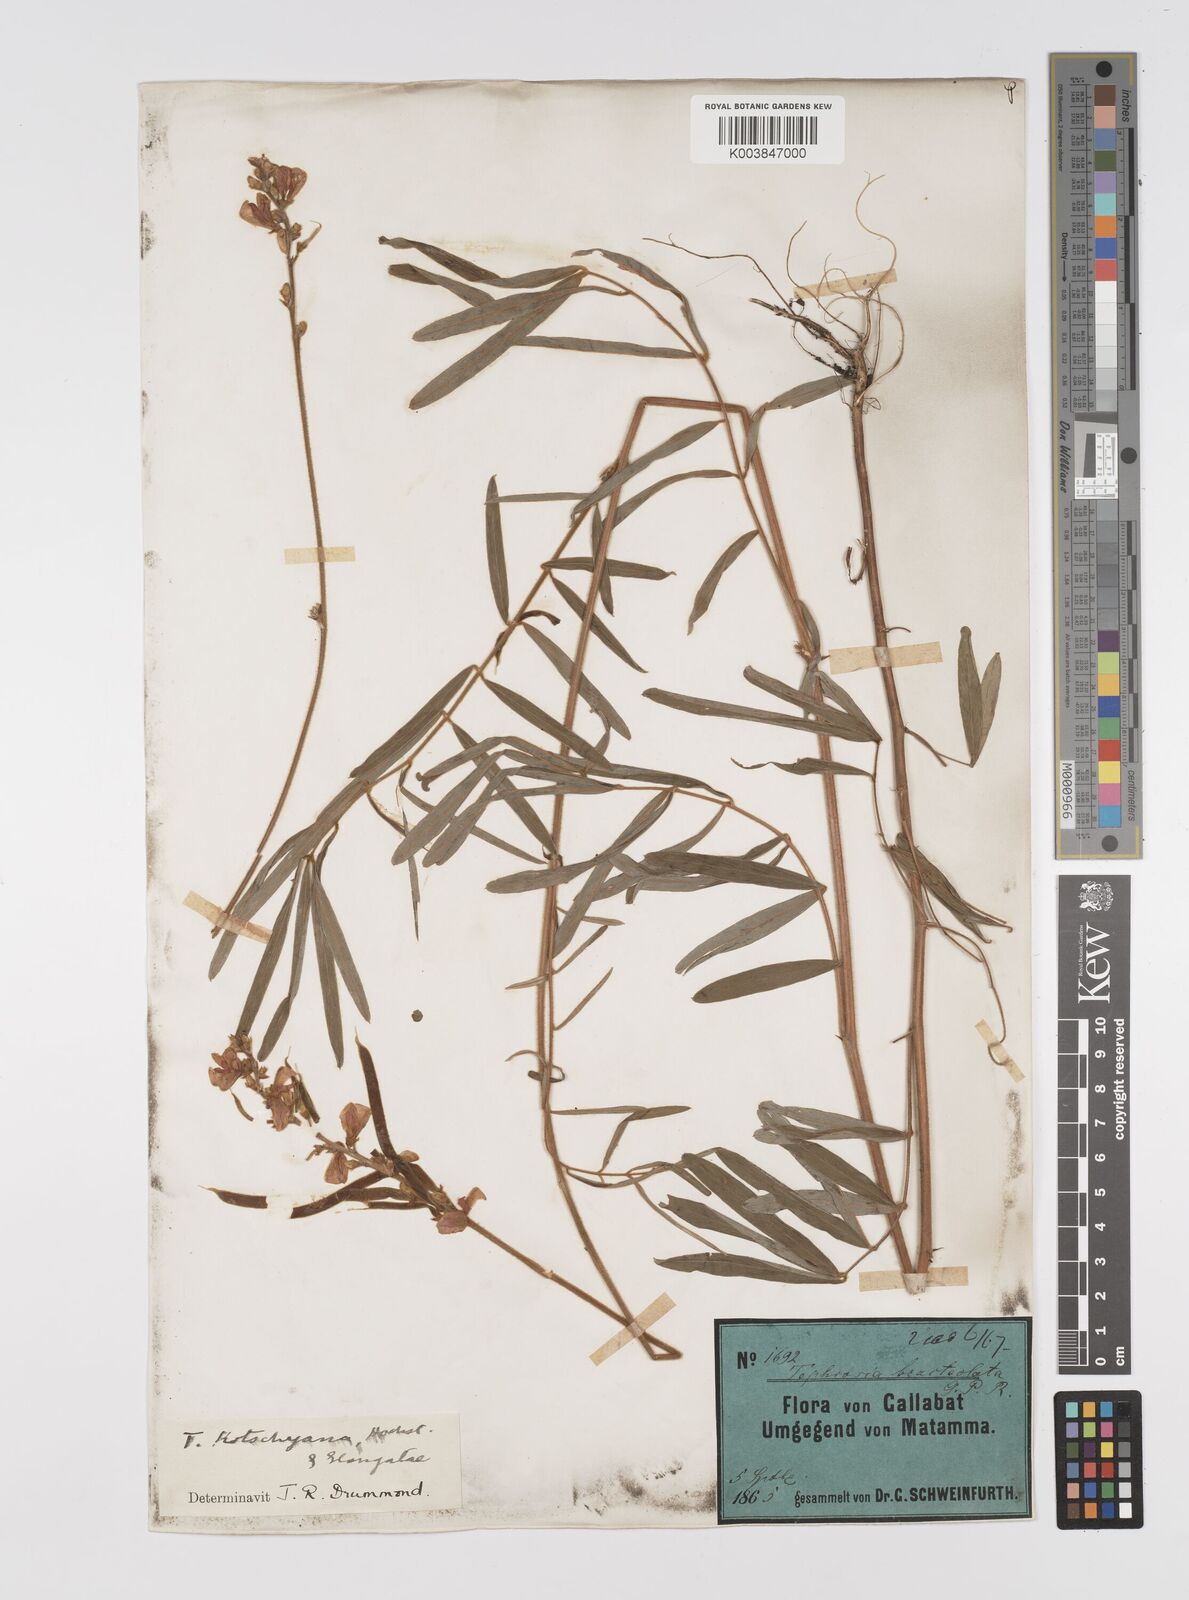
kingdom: Plantae
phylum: Tracheophyta
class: Magnoliopsida
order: Fabales
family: Fabaceae
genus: Tephrosia
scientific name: Tephrosia bracteolata
